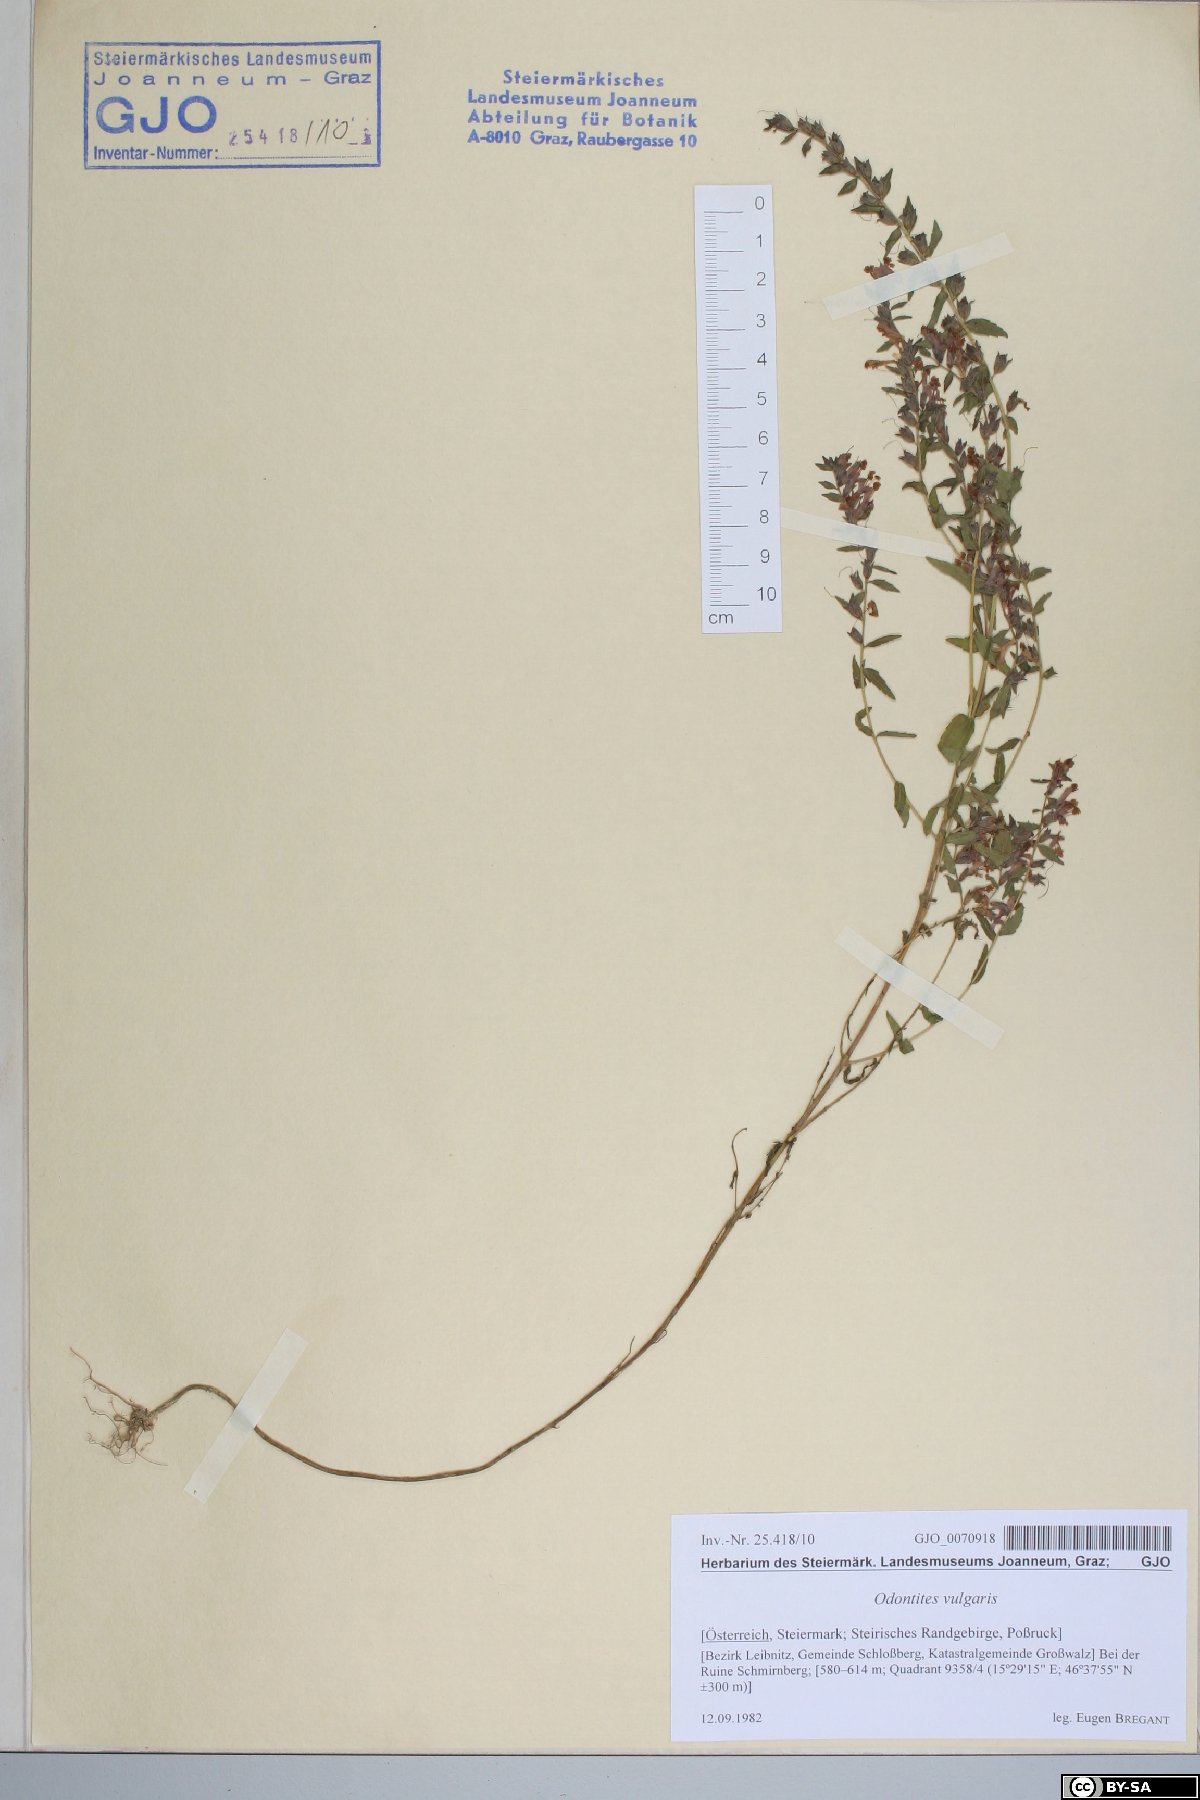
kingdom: Plantae
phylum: Tracheophyta
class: Magnoliopsida
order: Lamiales
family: Orobanchaceae
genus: Odontites
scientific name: Odontites vulgaris
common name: Broomrape
